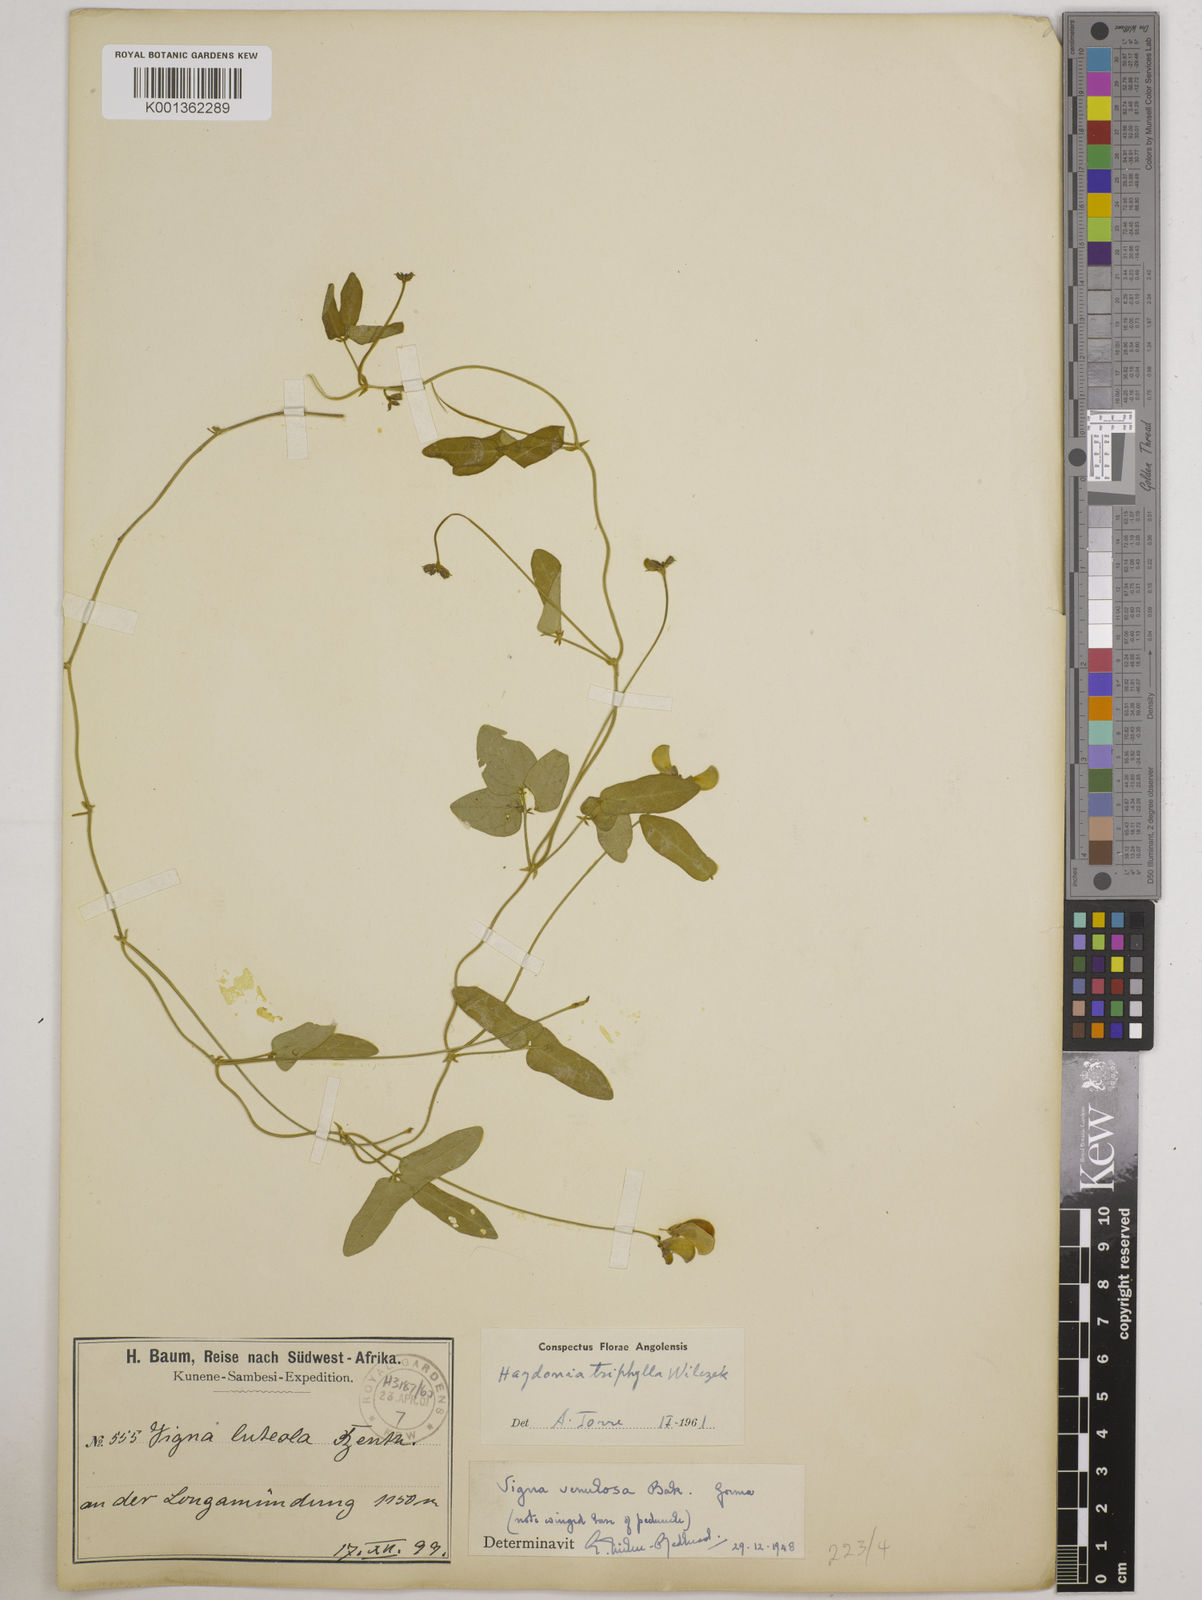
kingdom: Plantae
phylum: Tracheophyta
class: Magnoliopsida
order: Fabales
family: Fabaceae
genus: Vigna
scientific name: Vigna triphylla
